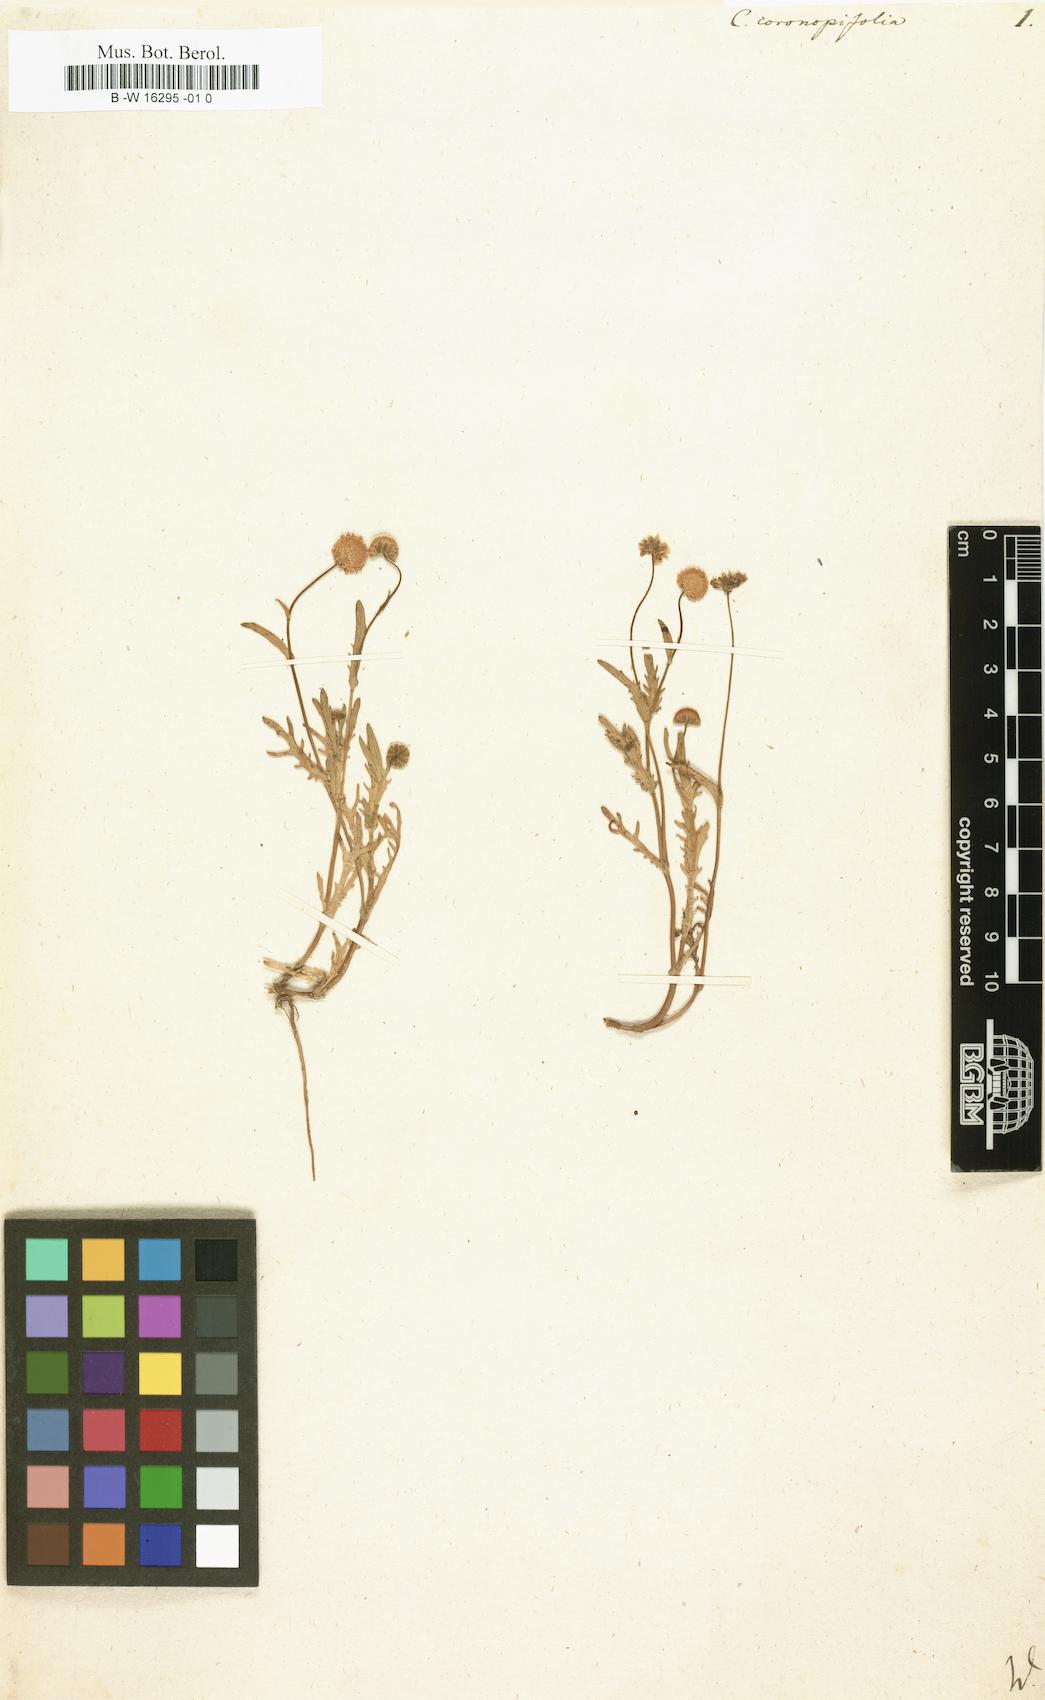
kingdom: Plantae
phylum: Tracheophyta
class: Magnoliopsida
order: Asterales
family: Asteraceae
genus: Cotula
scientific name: Cotula coronopifolia
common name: Buttonweed
